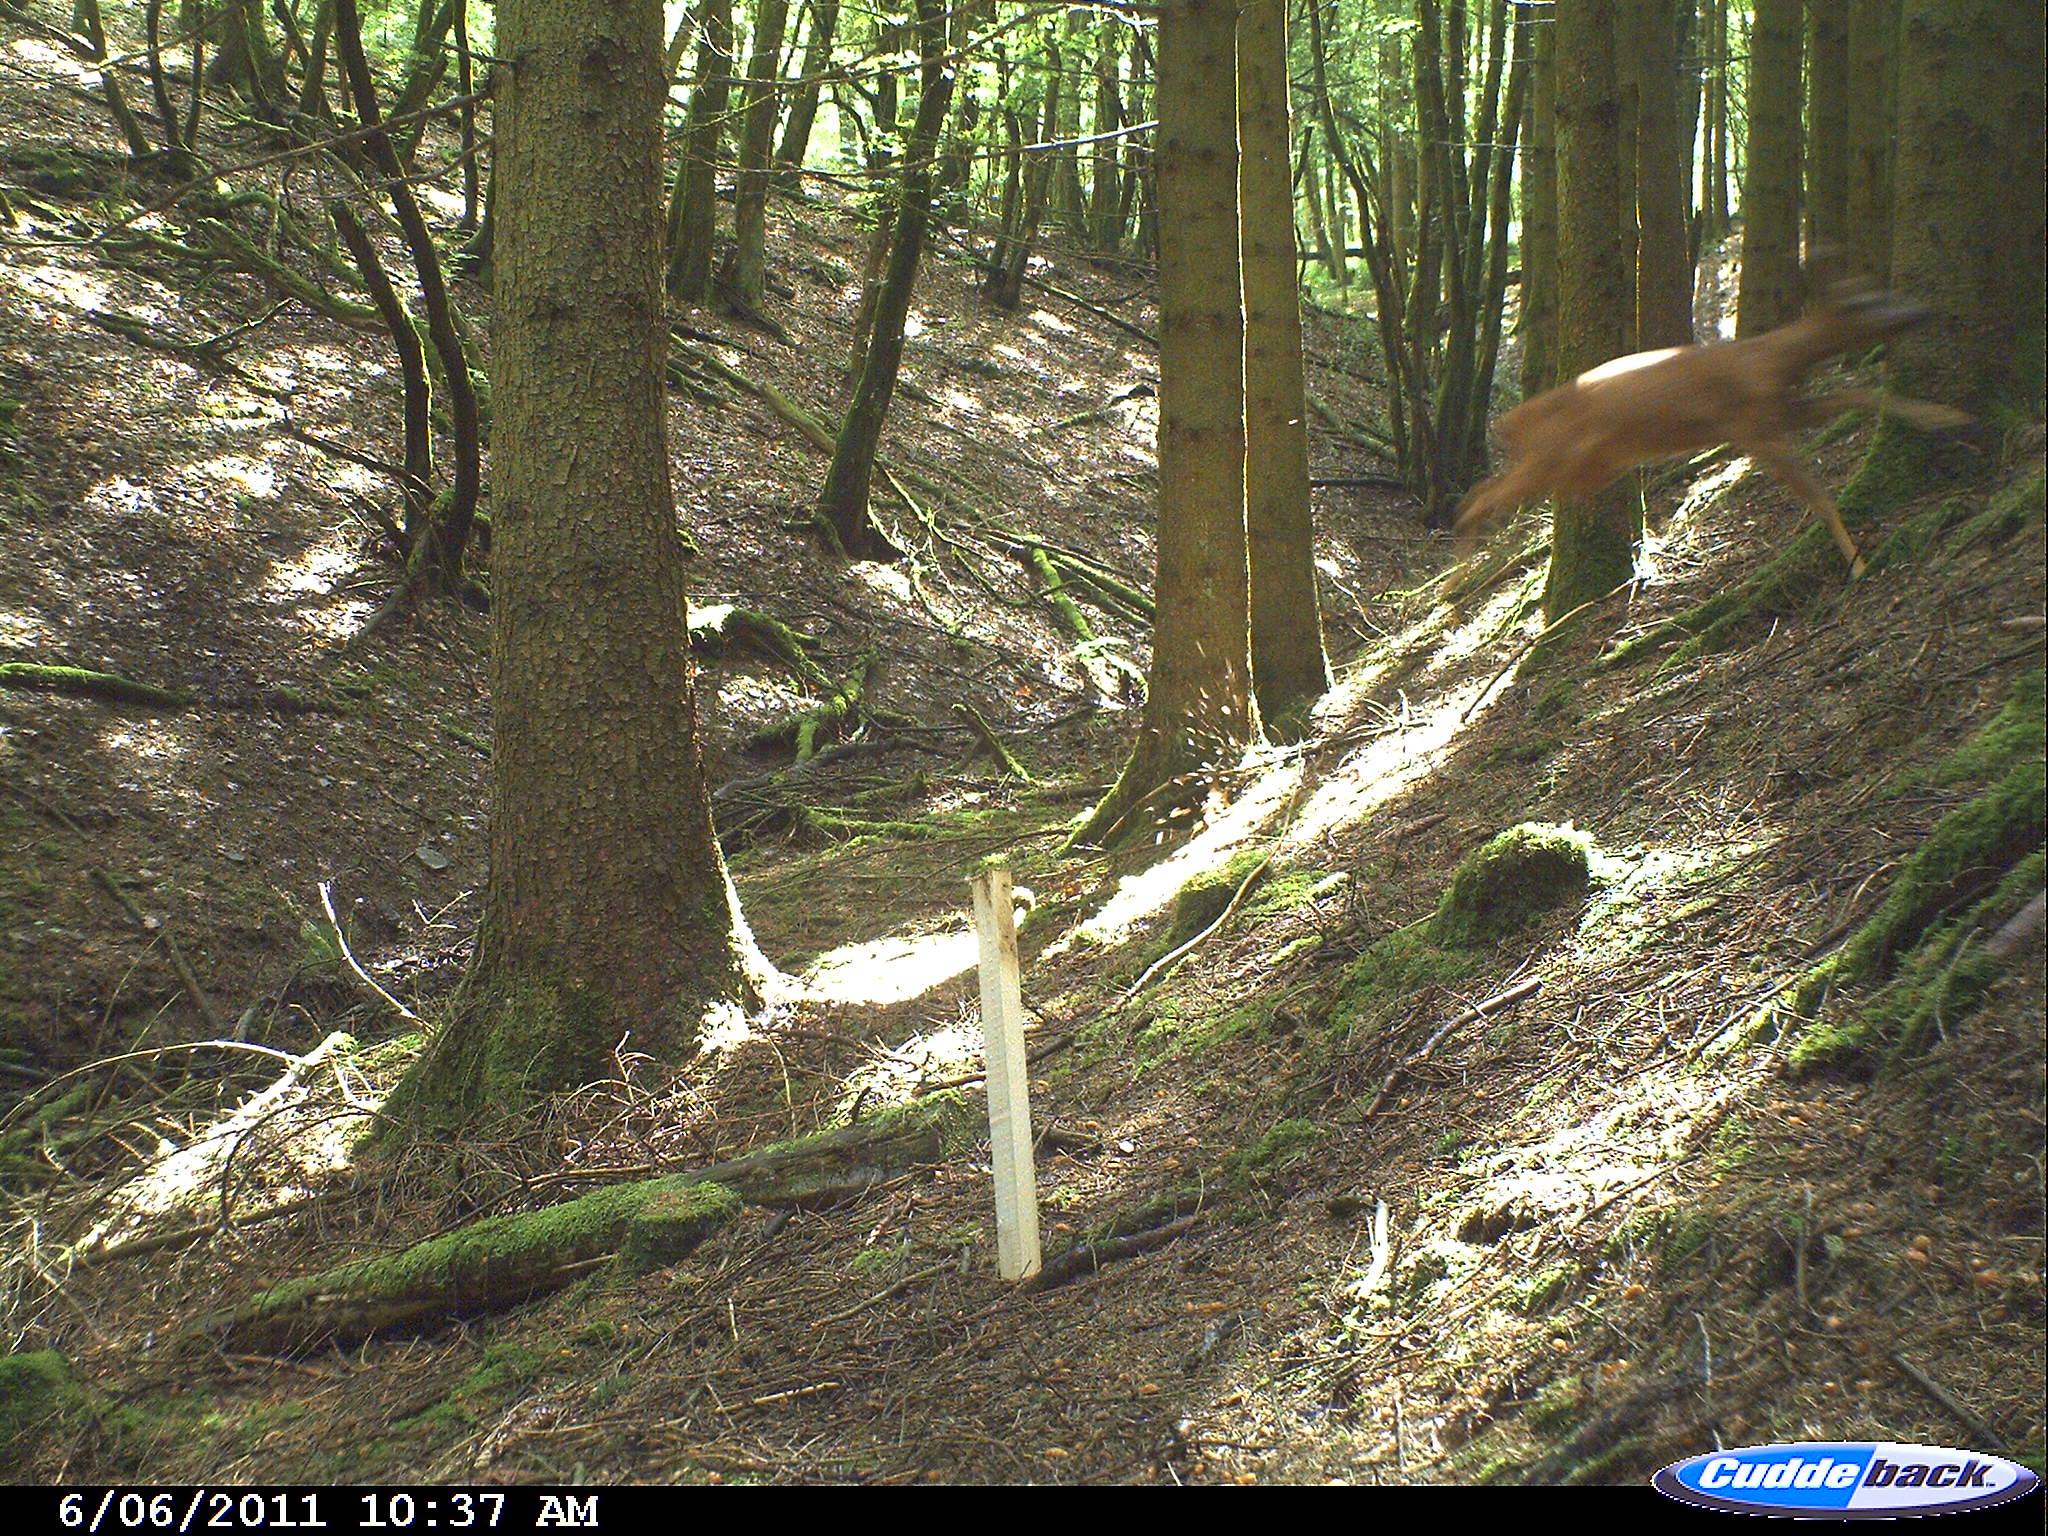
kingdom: Animalia
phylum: Chordata
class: Mammalia
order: Artiodactyla
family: Cervidae
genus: Capreolus
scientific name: Capreolus capreolus
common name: Western roe deer
